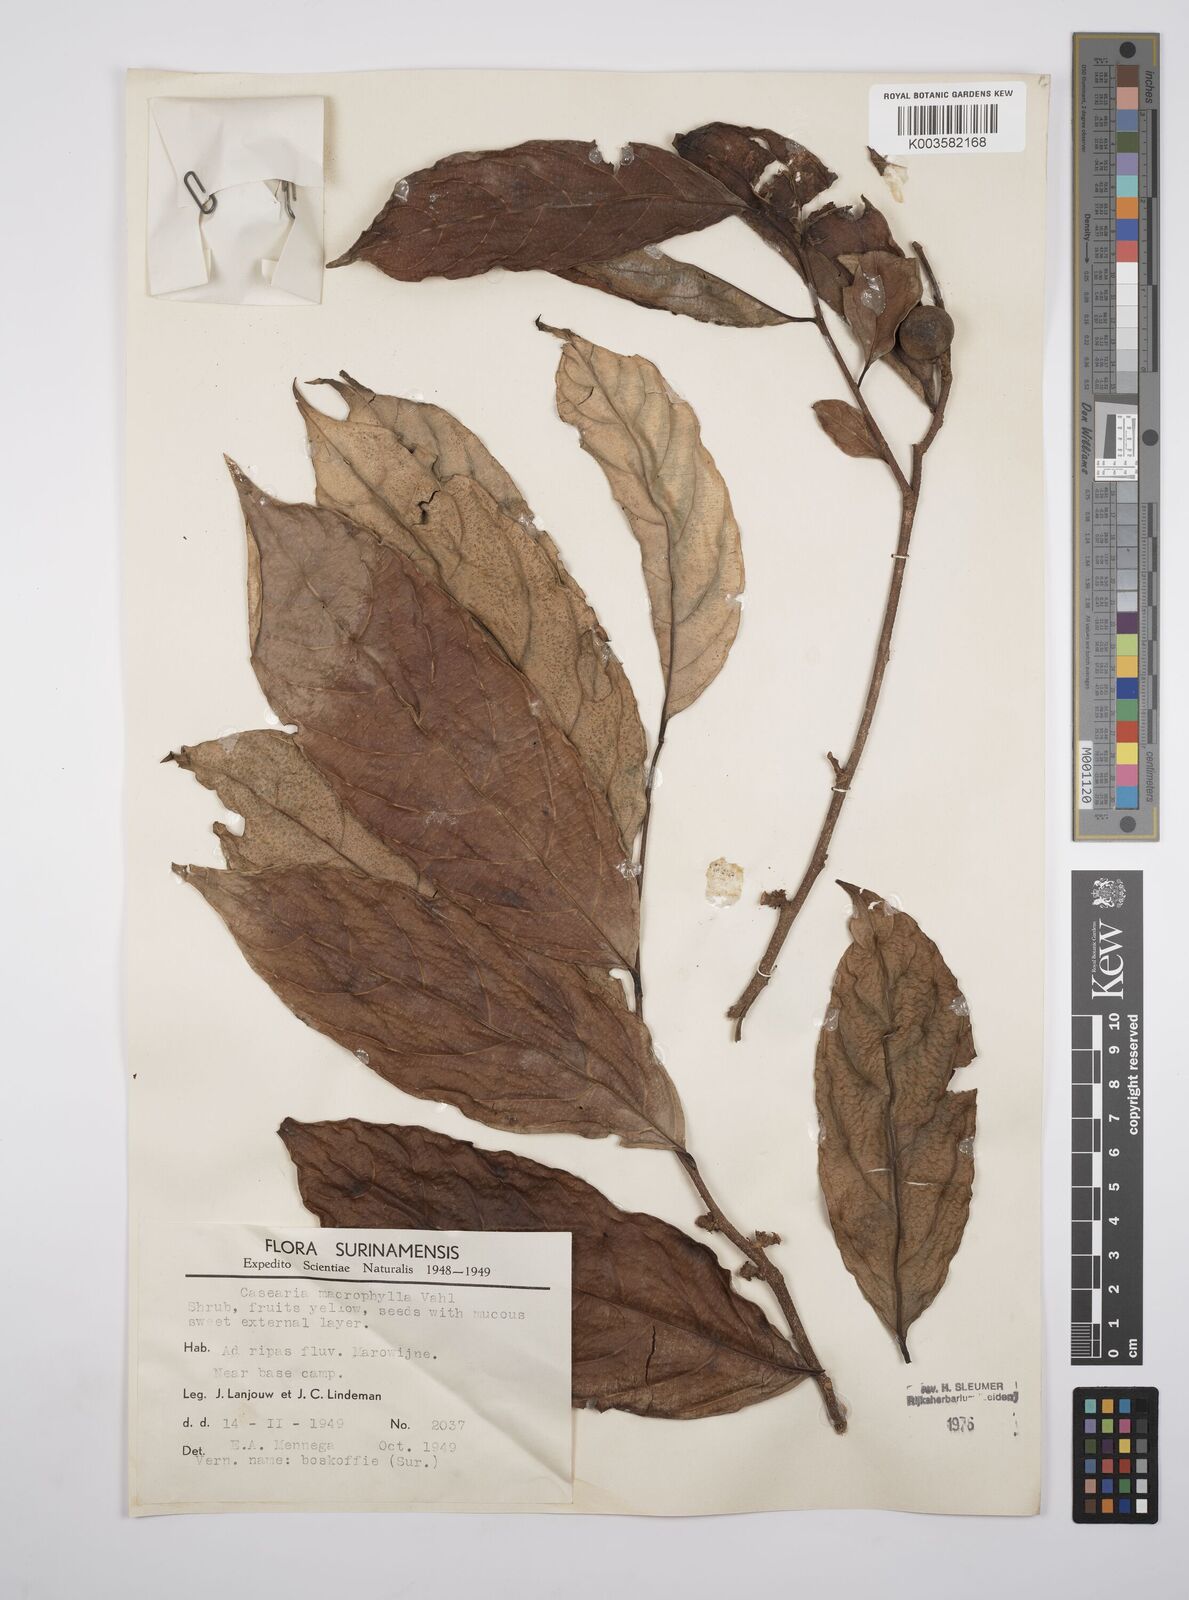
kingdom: Plantae
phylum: Tracheophyta
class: Magnoliopsida
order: Malpighiales
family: Salicaceae
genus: Casearia
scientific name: Casearia pitumba
